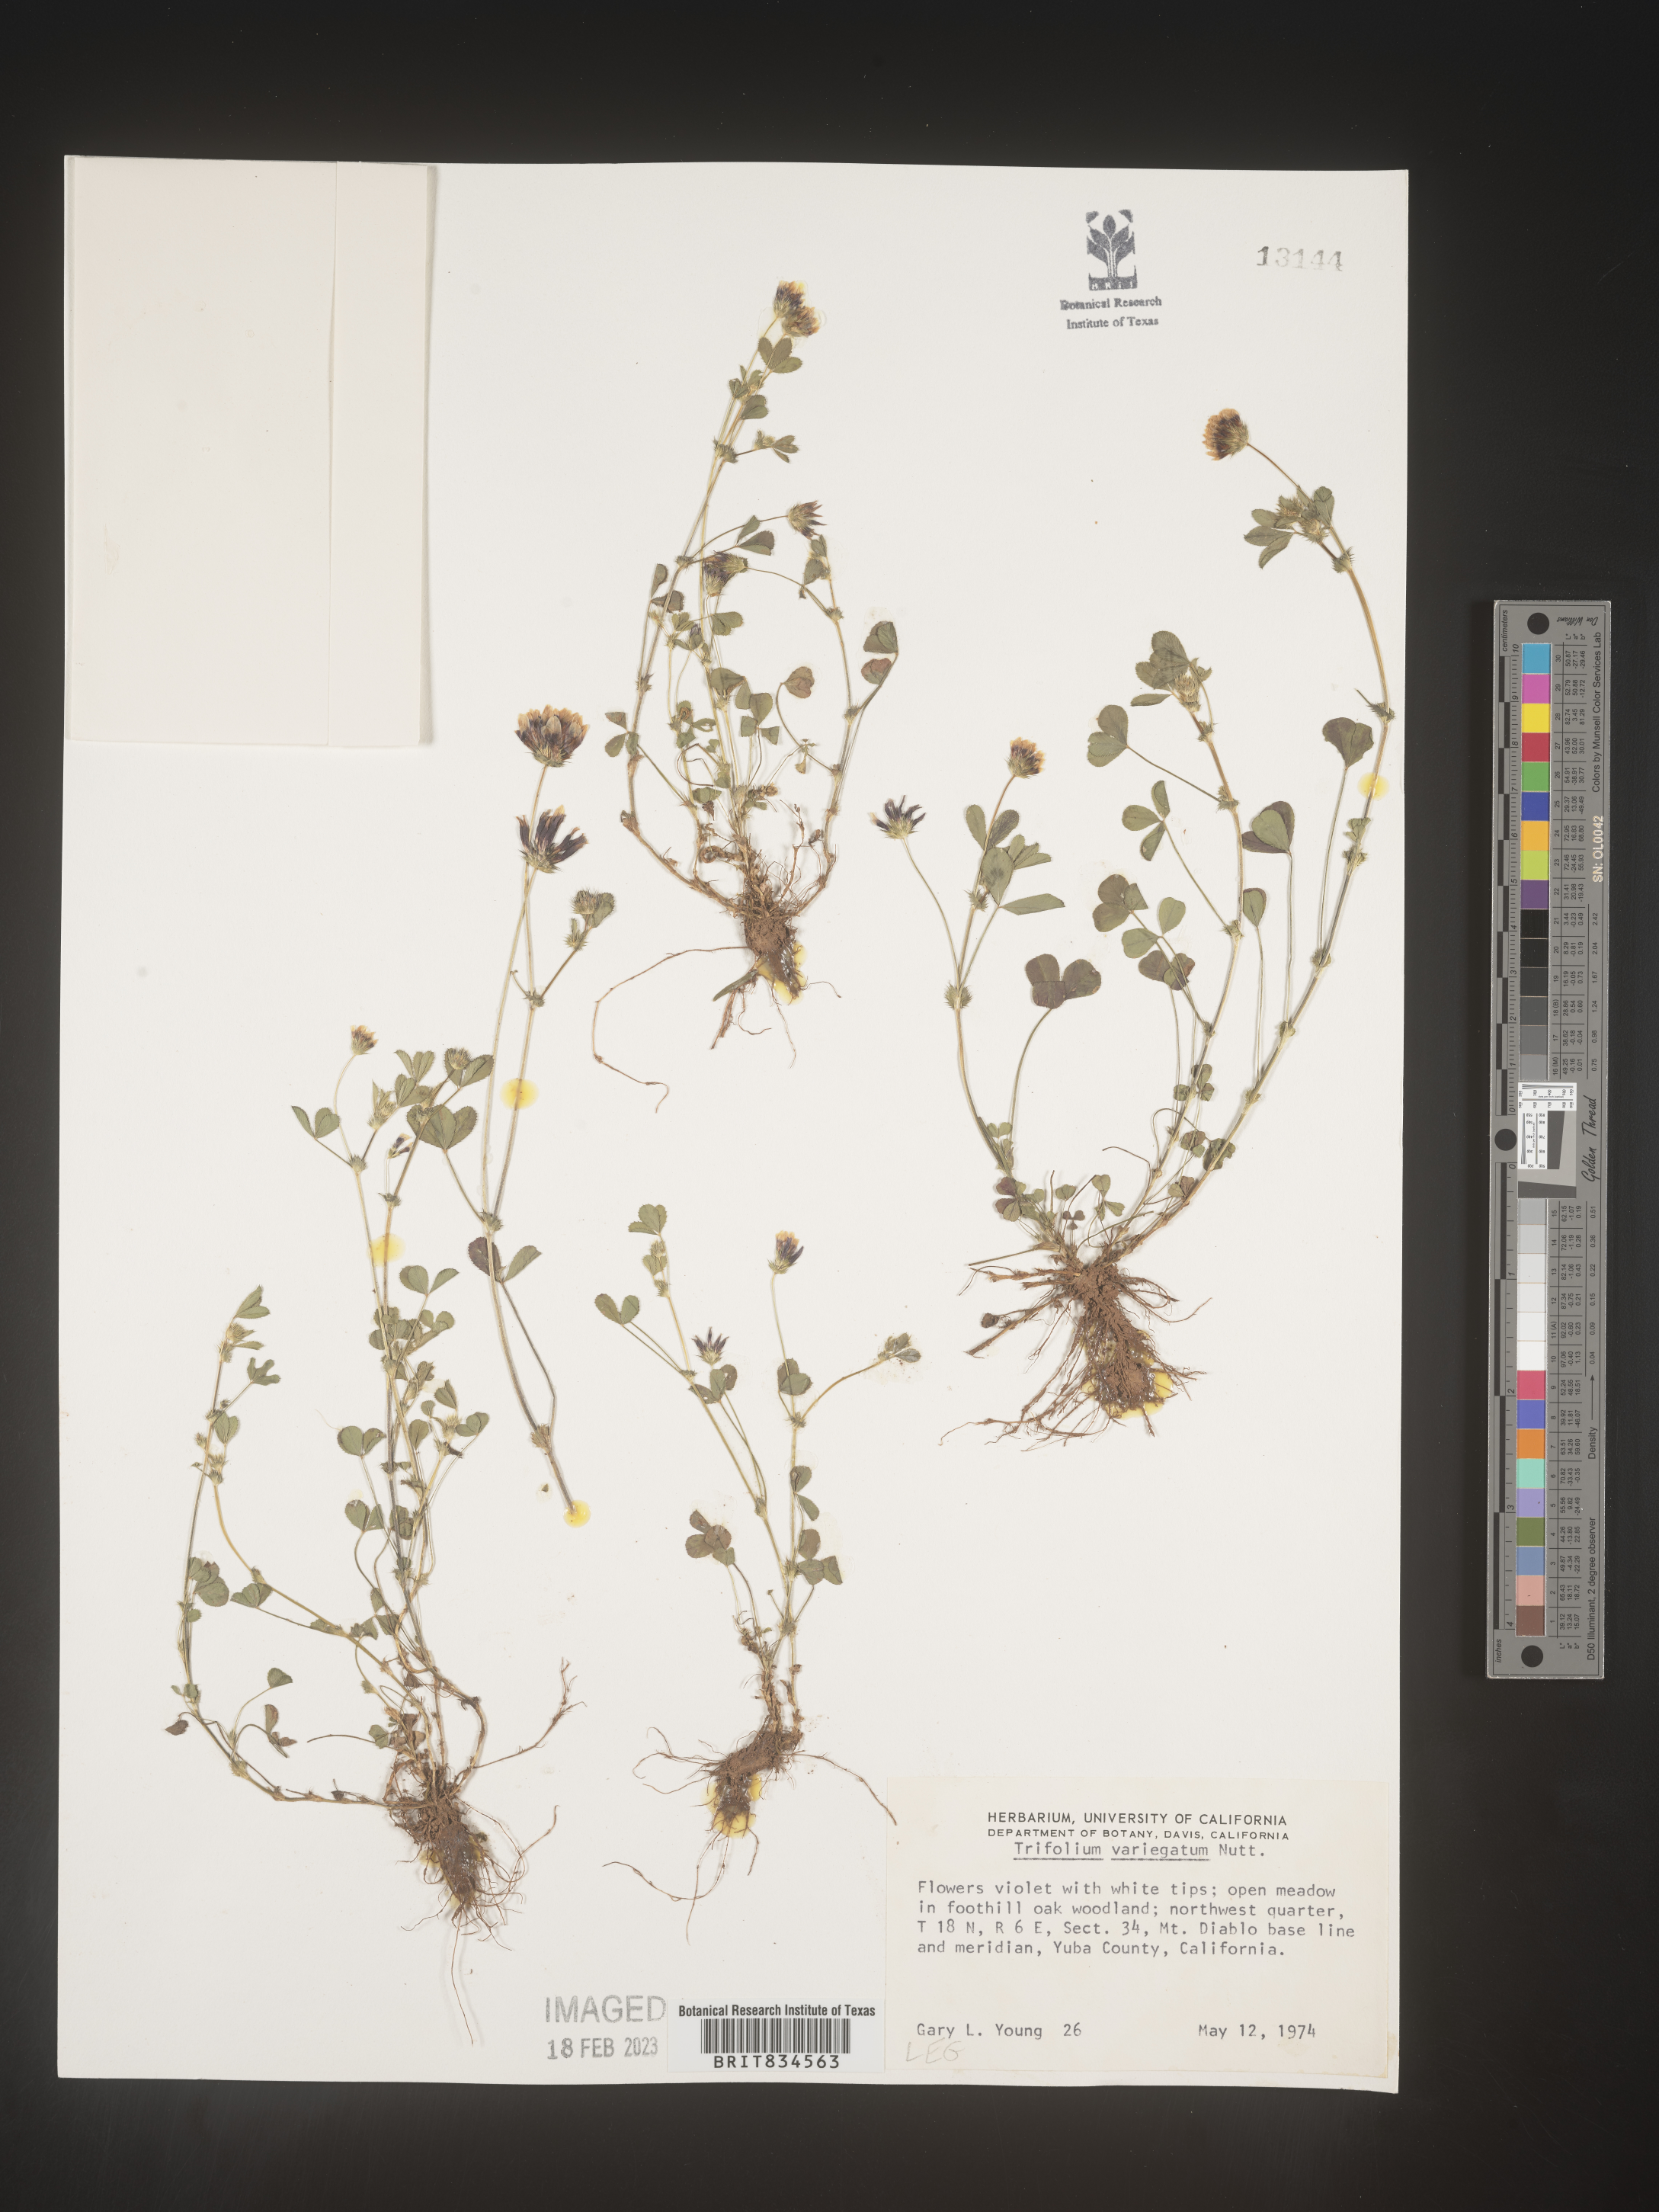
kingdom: Plantae
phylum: Tracheophyta
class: Magnoliopsida
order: Fabales
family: Fabaceae
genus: Trifolium
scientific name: Trifolium
